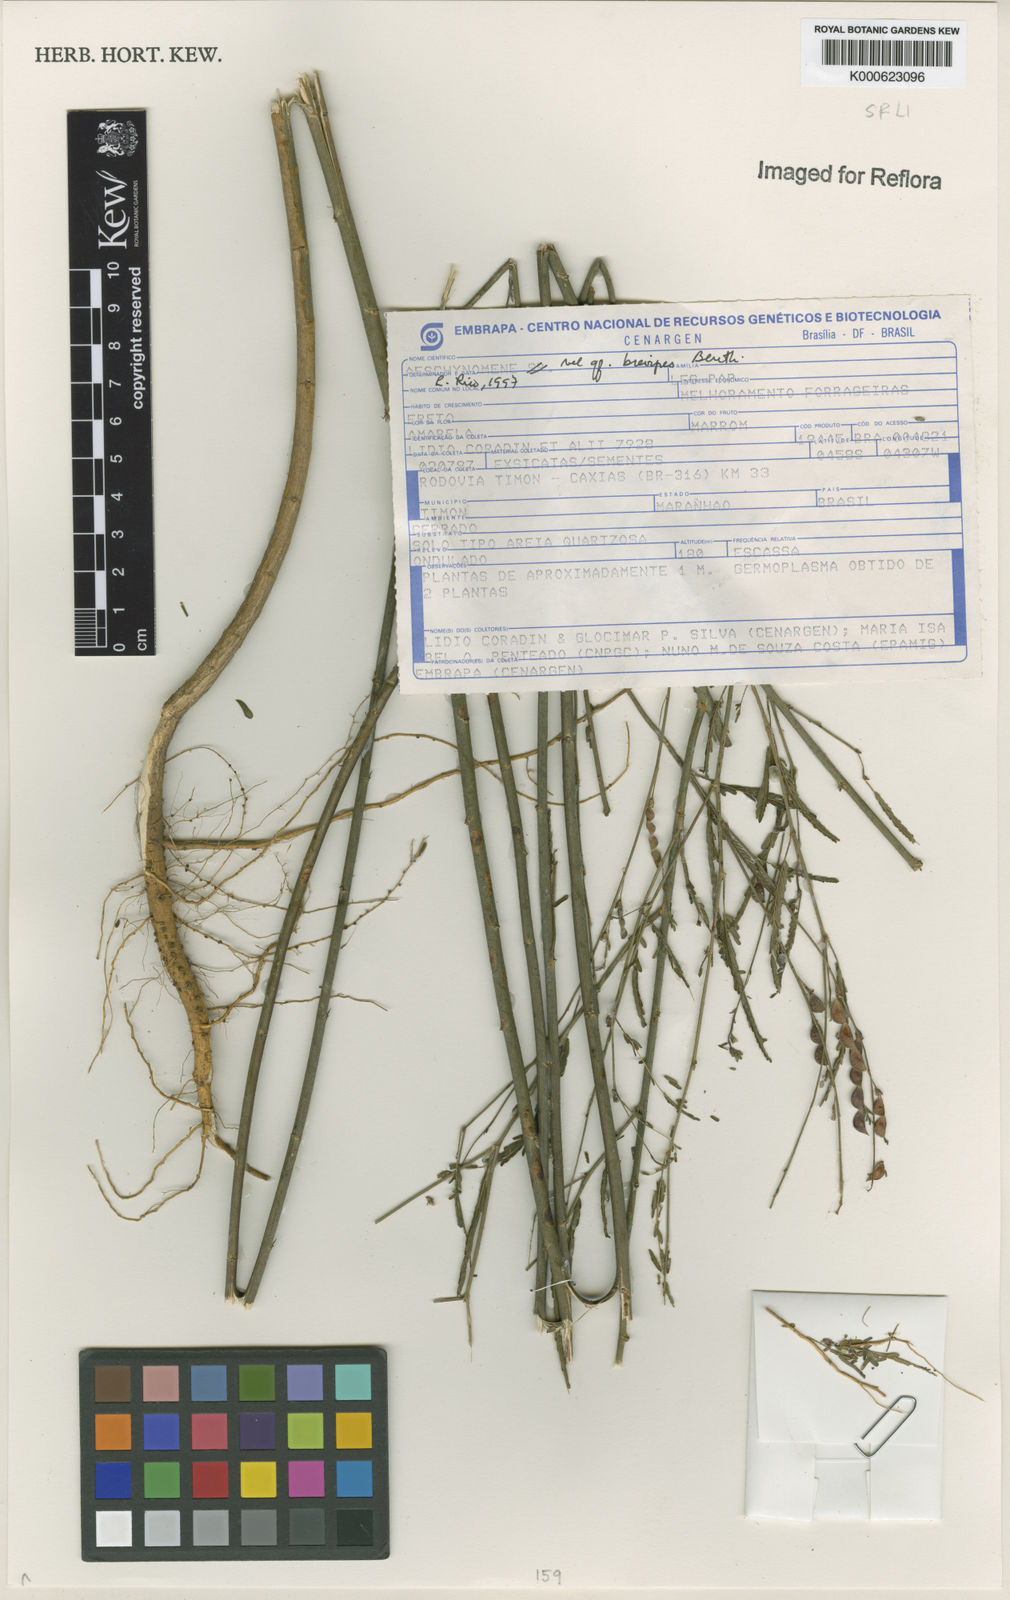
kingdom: Plantae
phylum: Tracheophyta
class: Magnoliopsida
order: Fabales
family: Fabaceae
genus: Ctenodon
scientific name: Ctenodon brevipes
